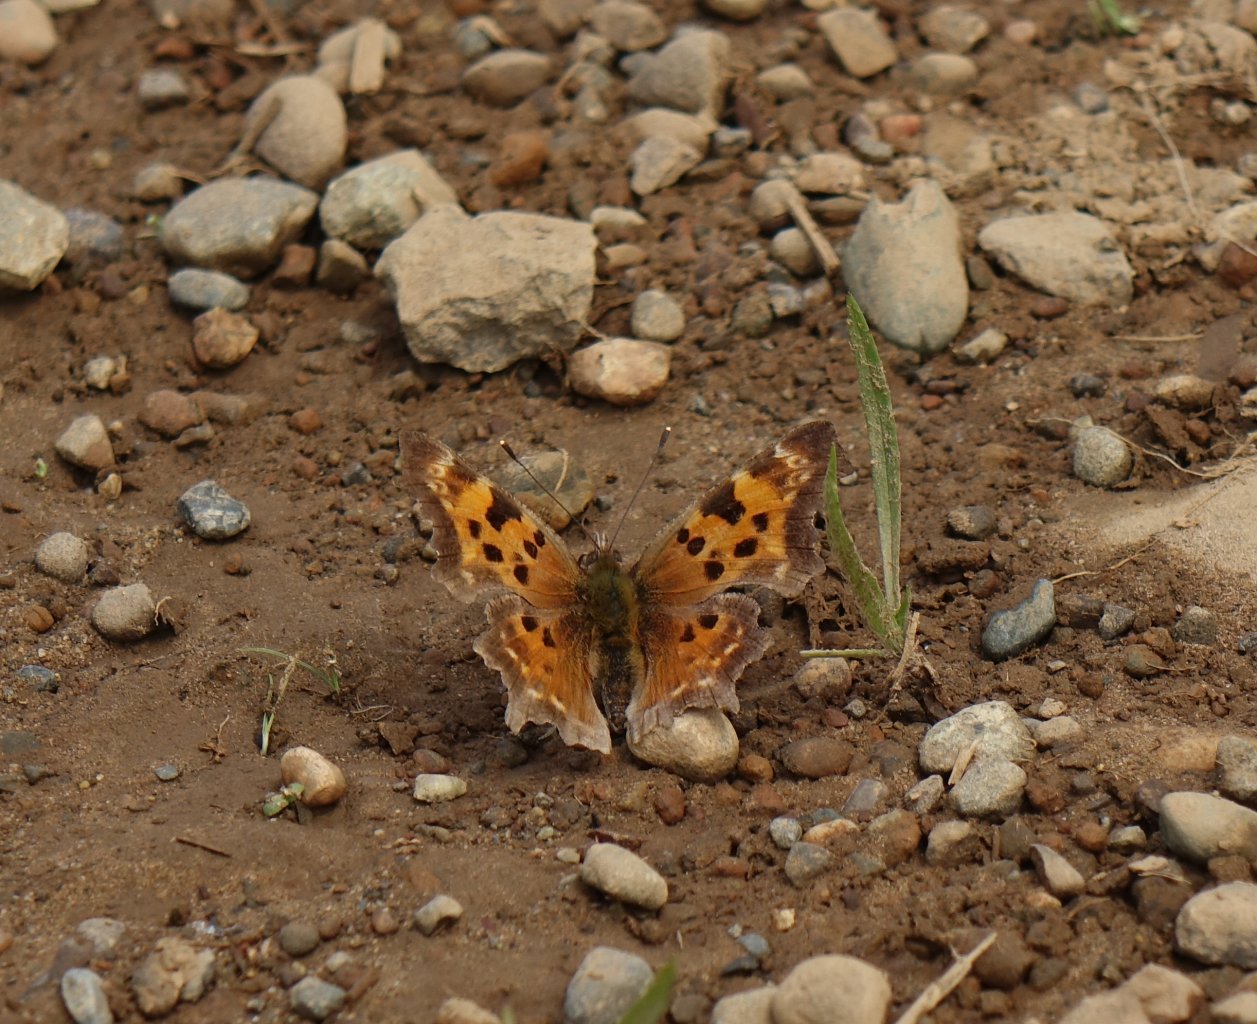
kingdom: Animalia
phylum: Arthropoda
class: Insecta
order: Lepidoptera
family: Nymphalidae
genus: Polygonia
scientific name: Polygonia satyrus
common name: Satyr Comma
